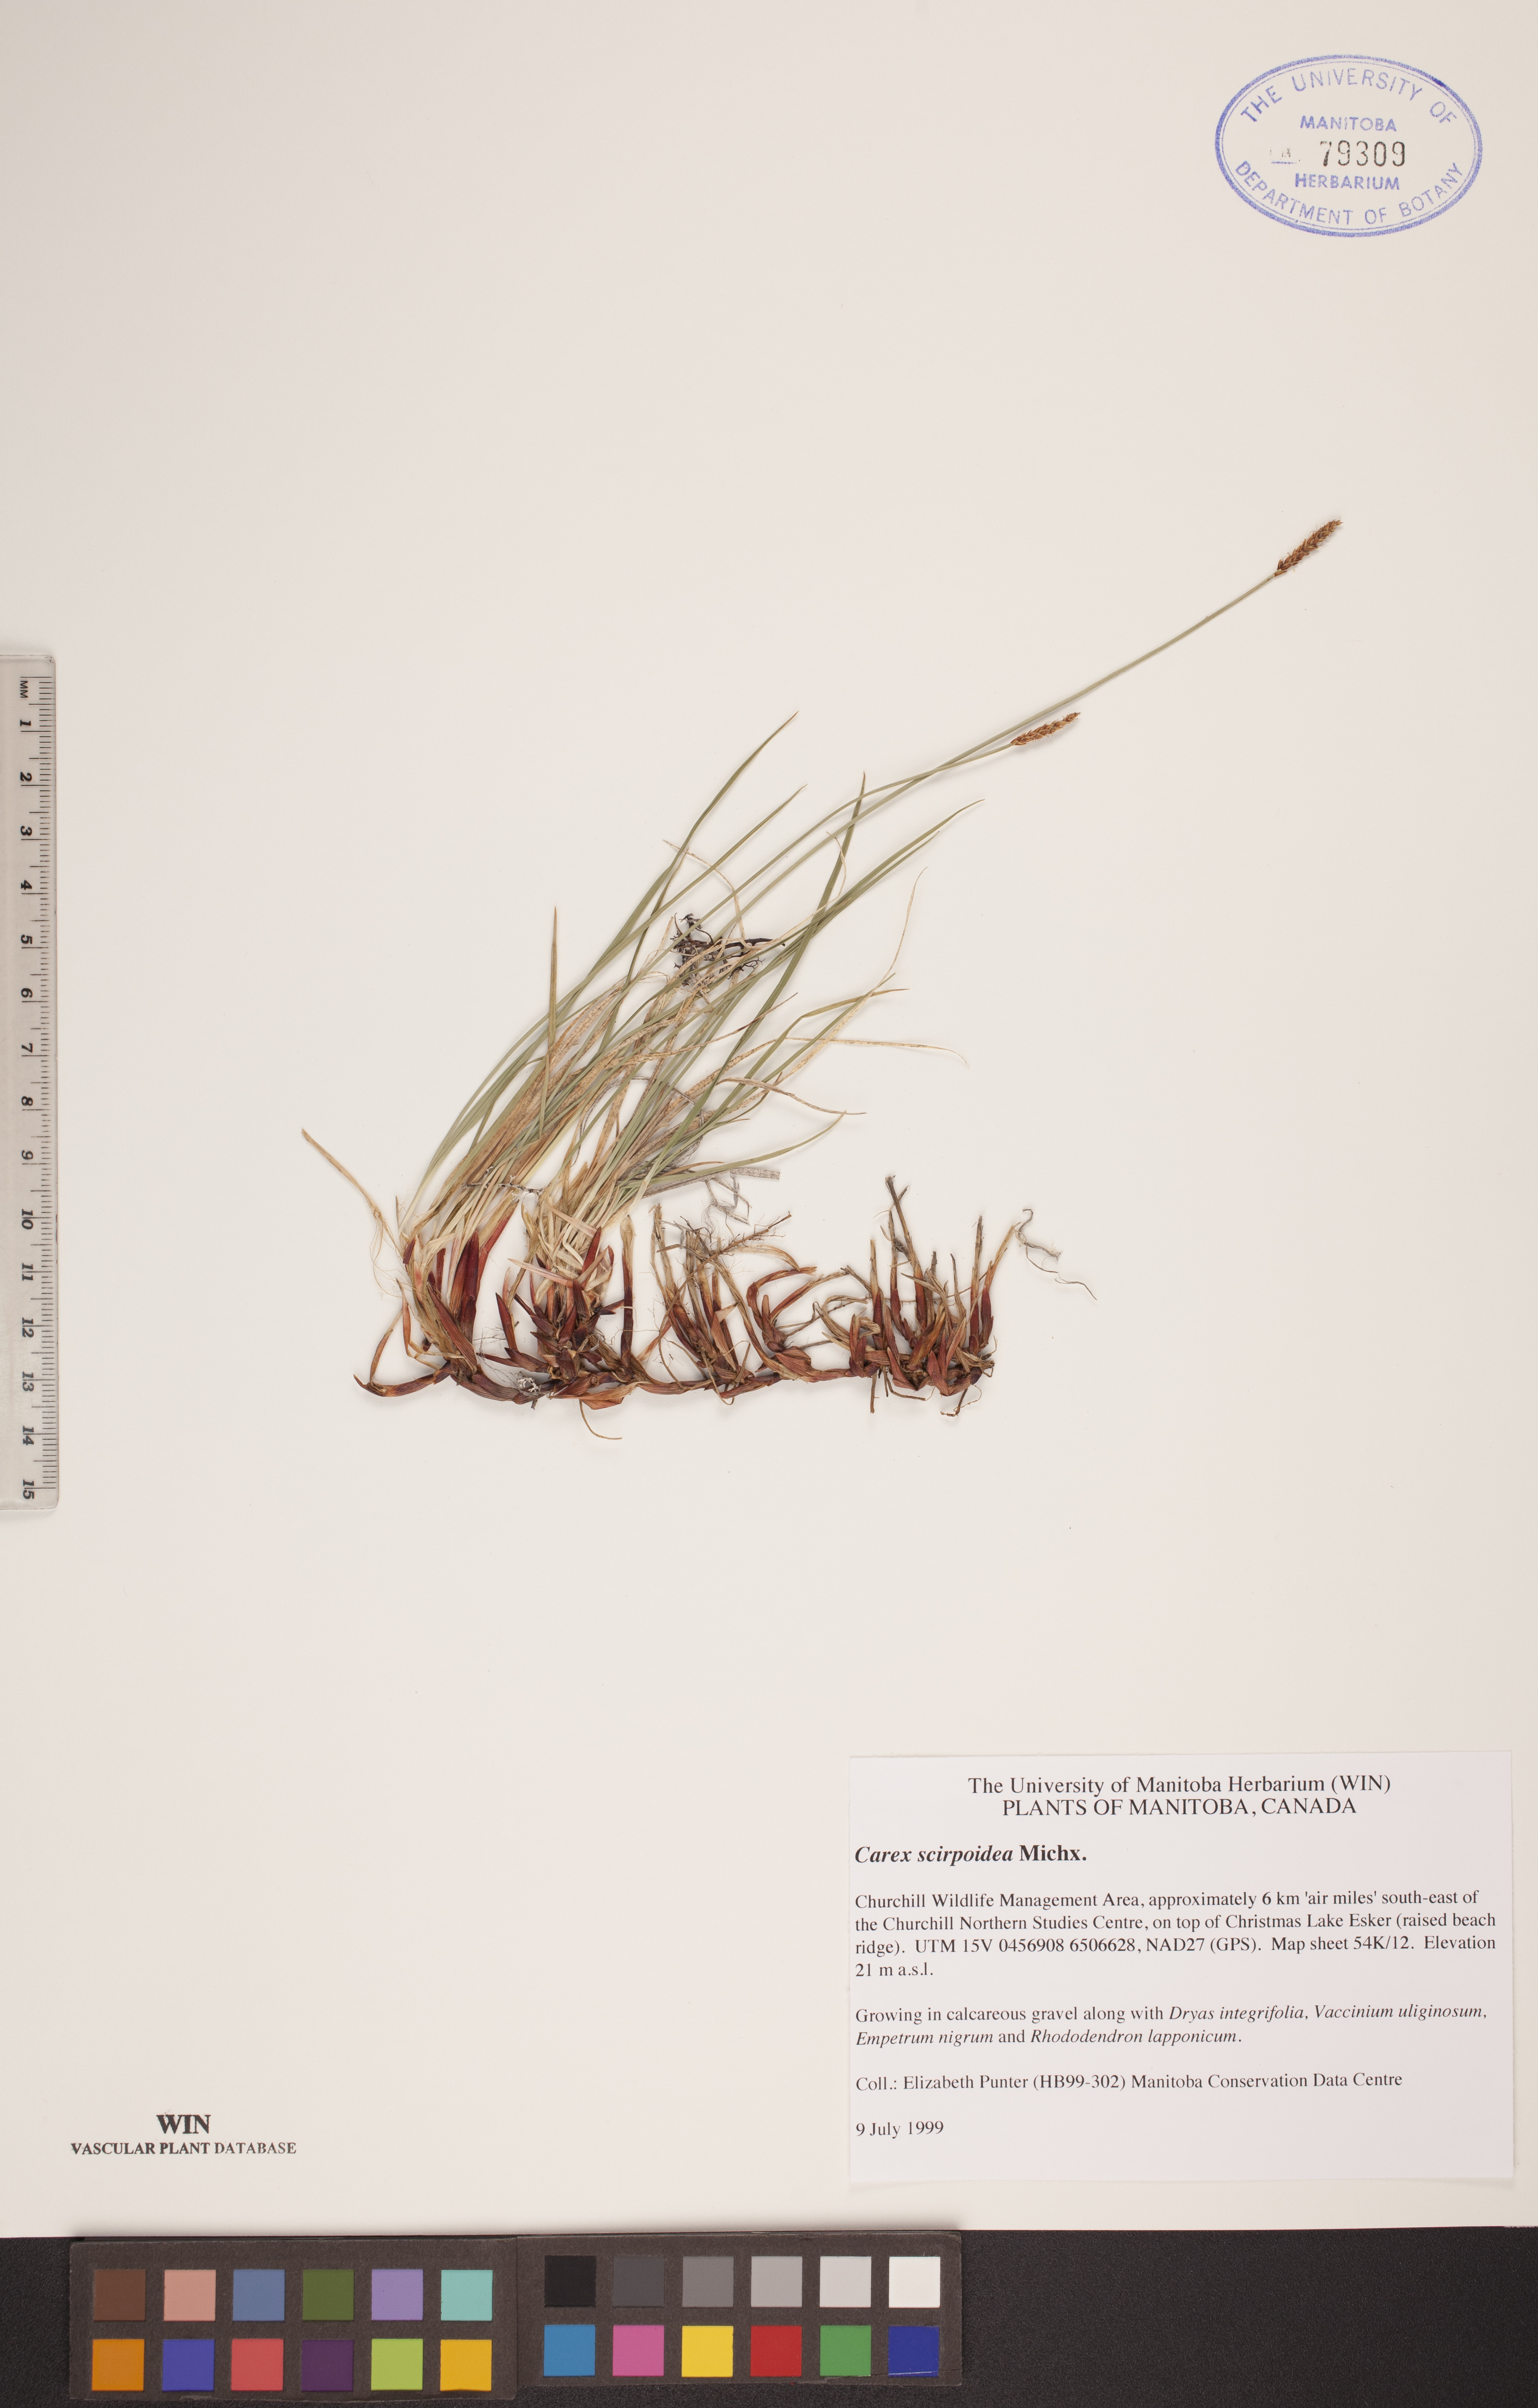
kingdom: Plantae
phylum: Tracheophyta
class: Liliopsida
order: Poales
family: Cyperaceae
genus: Carex
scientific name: Carex scirpoidea
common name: Canada single-spike sedge
